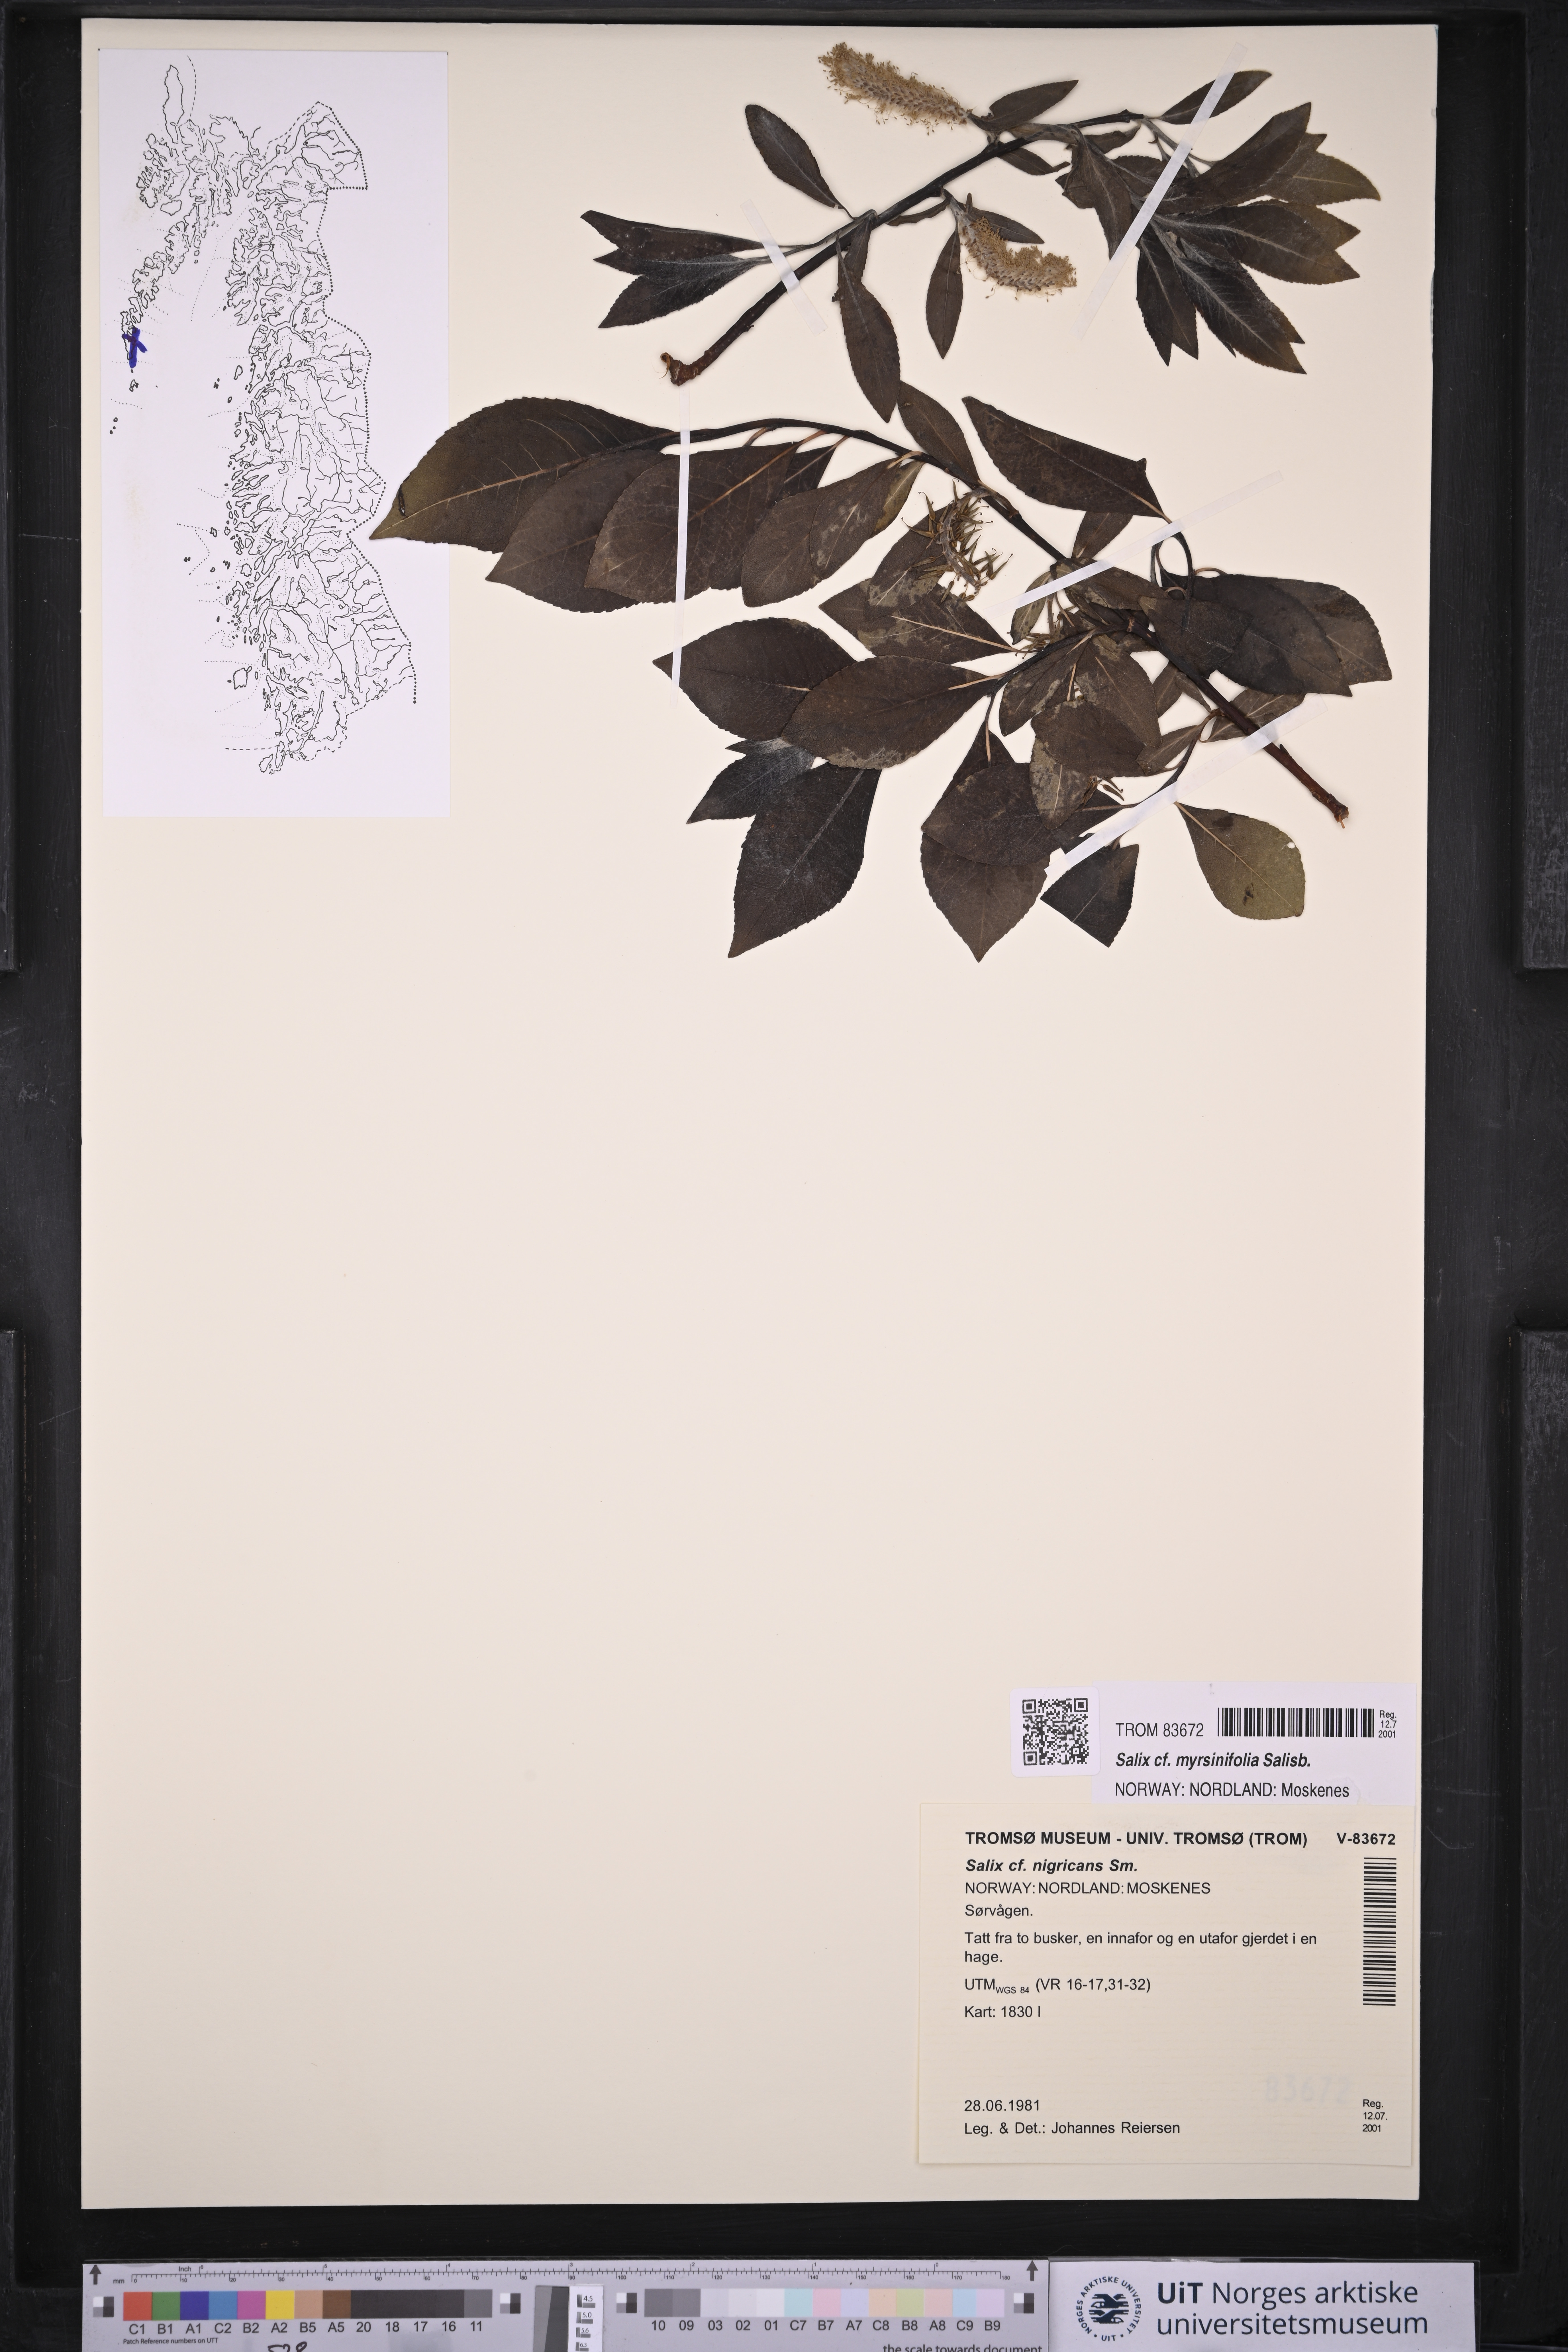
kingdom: Plantae
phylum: Tracheophyta
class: Magnoliopsida
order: Malpighiales
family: Salicaceae
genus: Salix
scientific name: Salix myrsinifolia
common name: Dark-leaved willow
